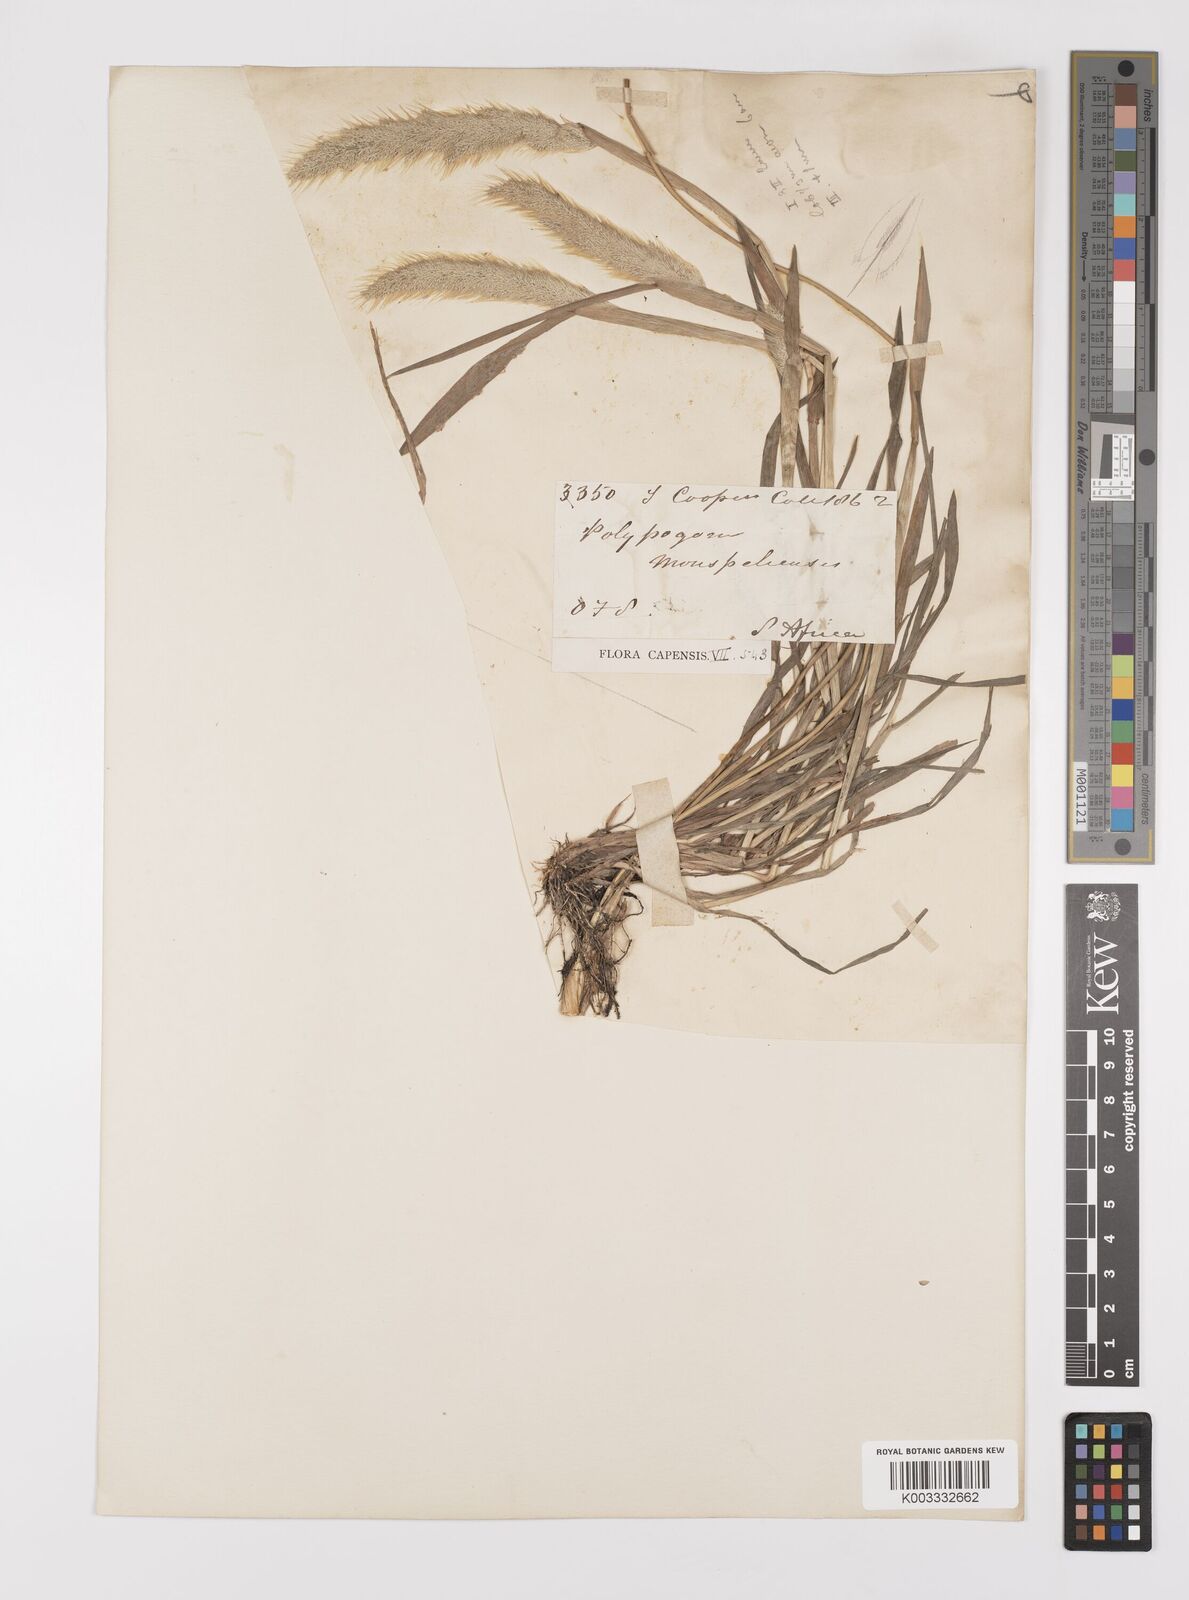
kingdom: Plantae
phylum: Tracheophyta
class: Liliopsida
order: Poales
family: Poaceae
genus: Polypogon
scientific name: Polypogon monspeliensis
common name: Annual rabbitsfoot grass
